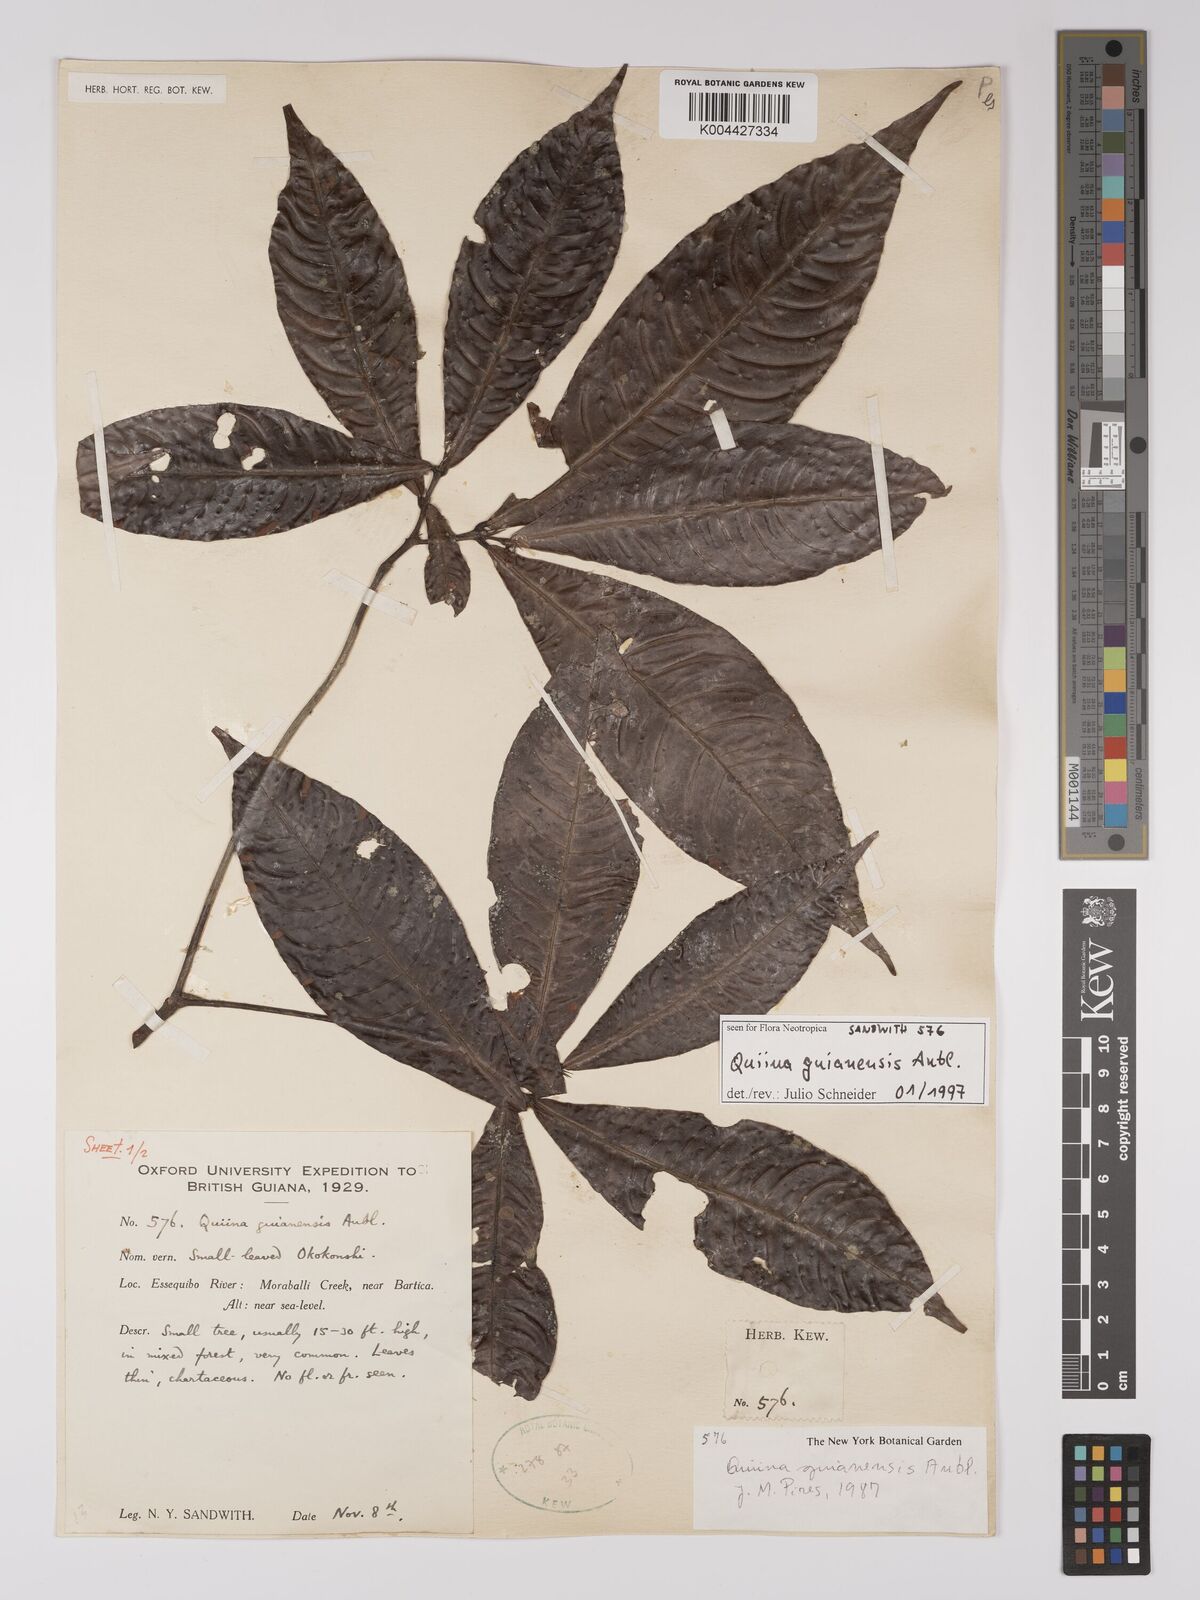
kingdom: Plantae
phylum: Tracheophyta
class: Magnoliopsida
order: Malpighiales
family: Quiinaceae
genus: Quiina
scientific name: Quiina guianensis
